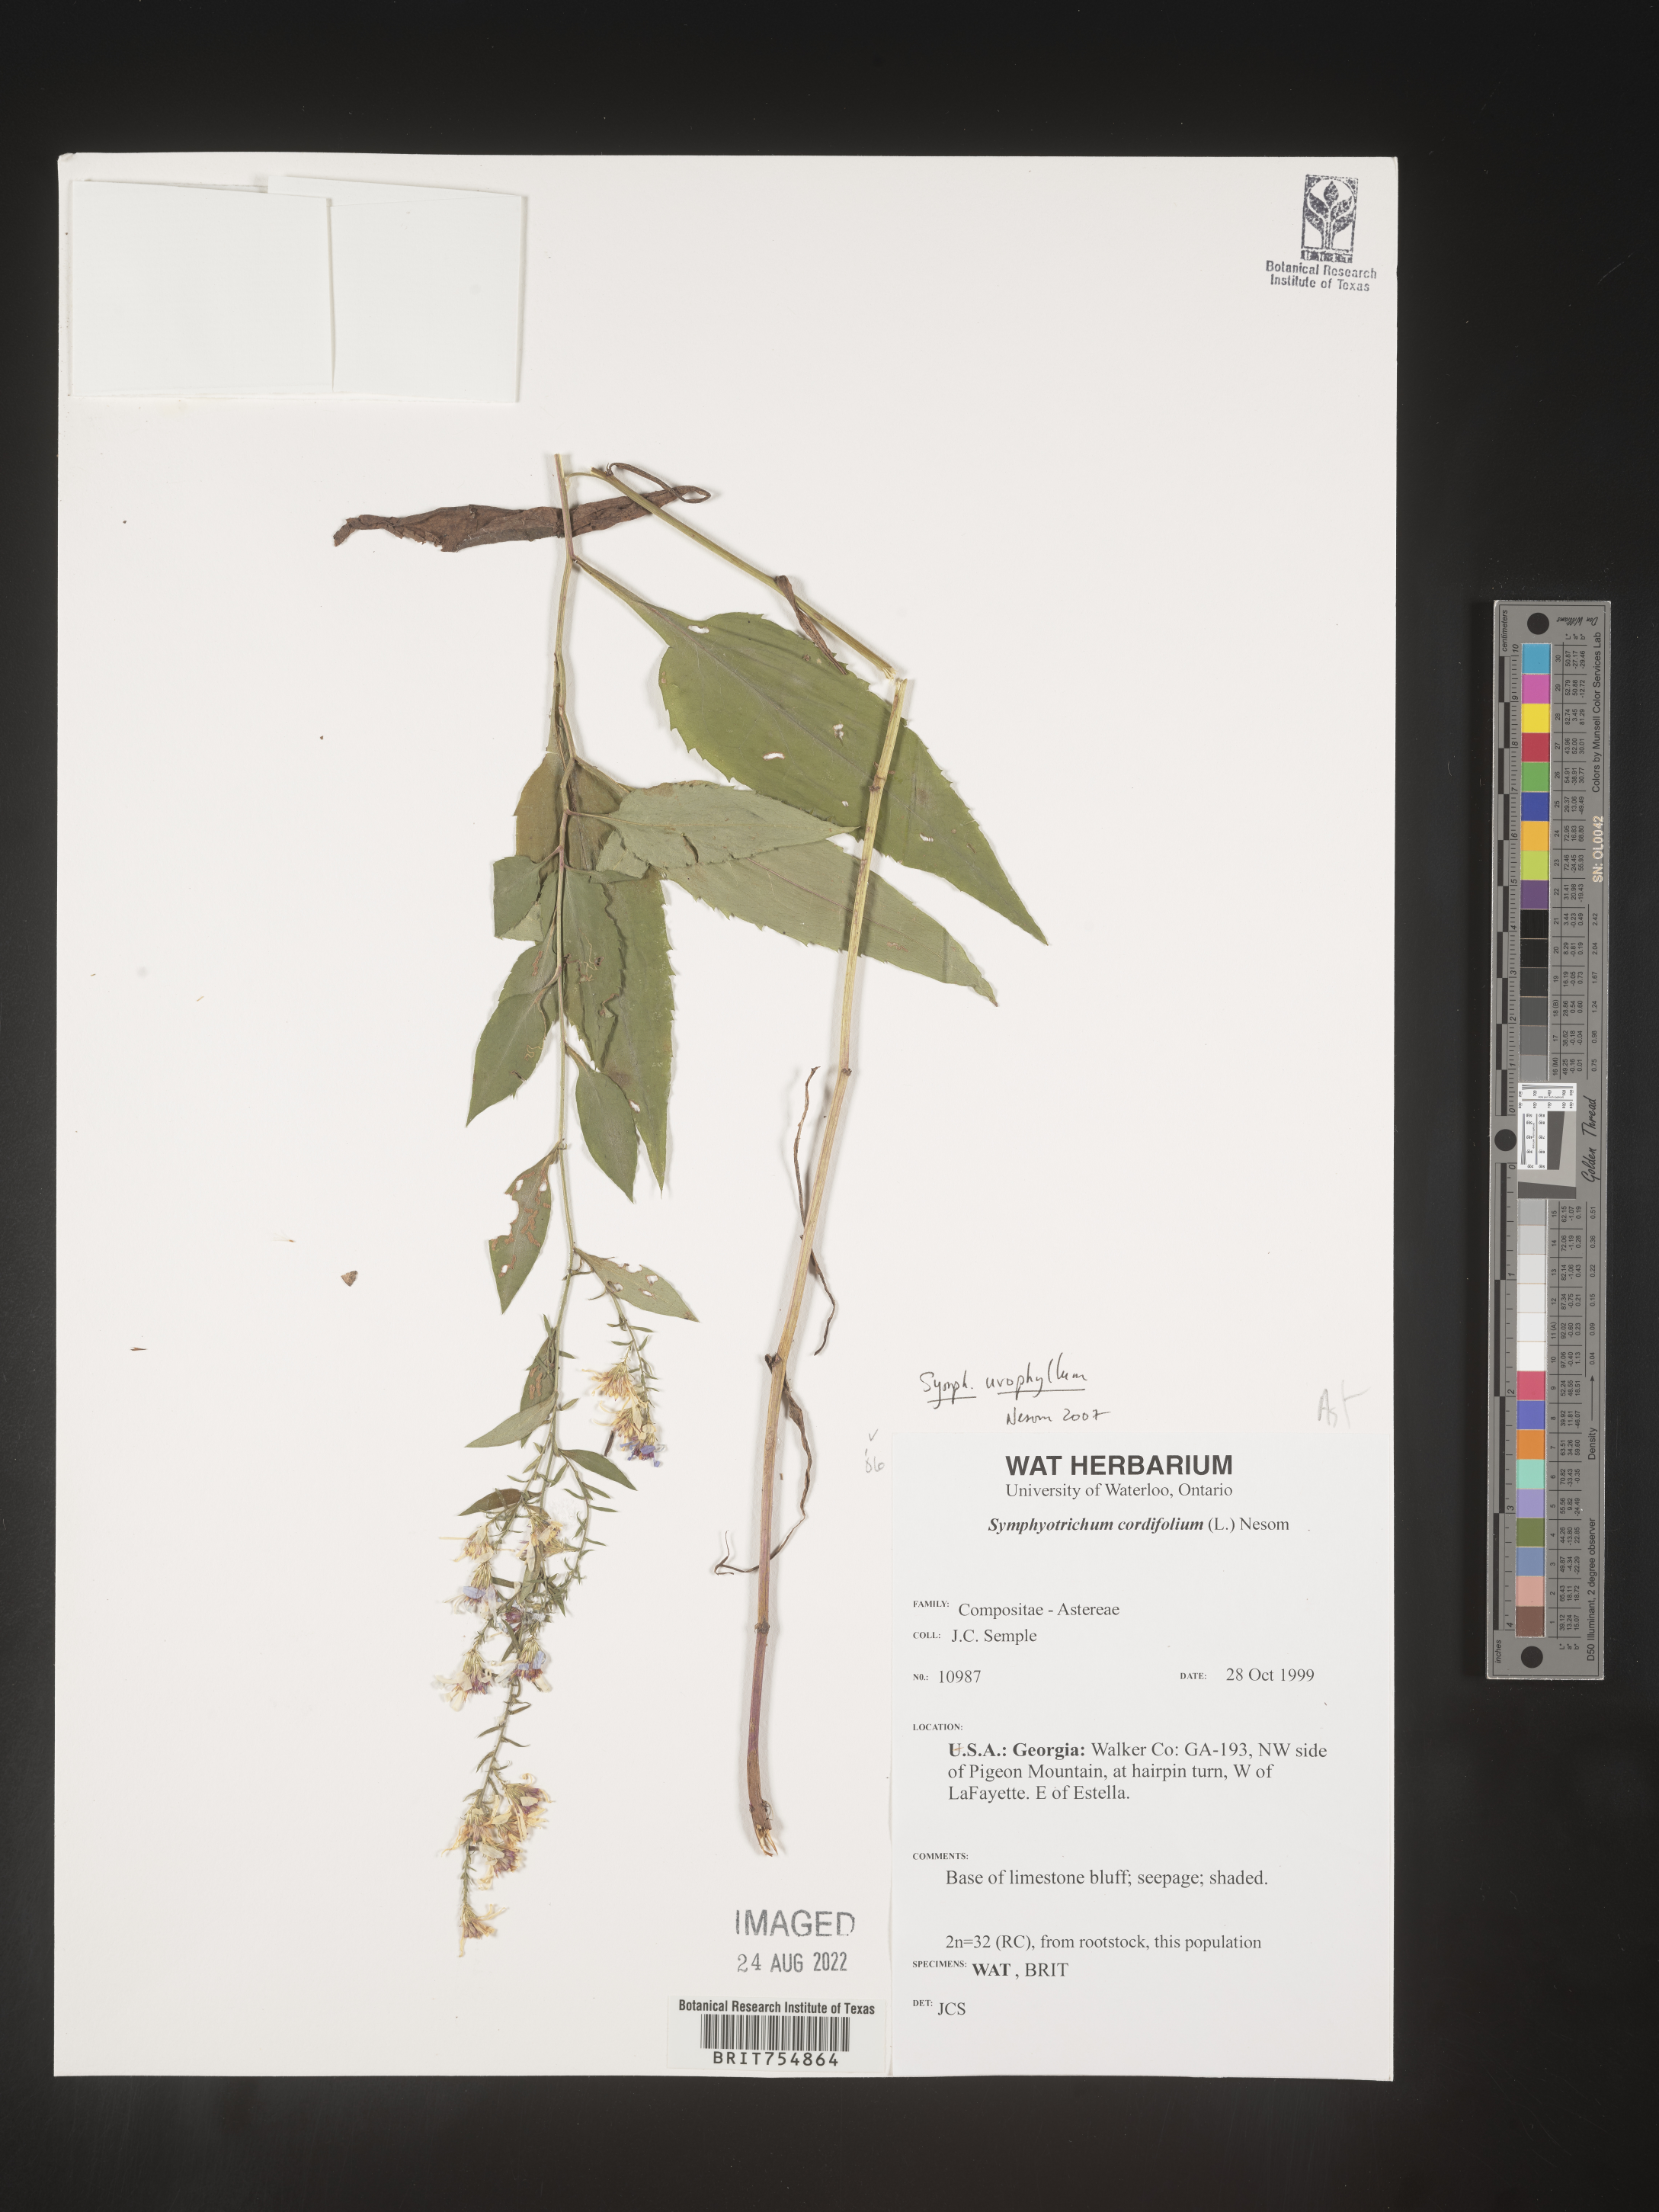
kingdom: Plantae
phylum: Tracheophyta
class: Magnoliopsida
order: Asterales
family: Asteraceae
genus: Symphyotrichum
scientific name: Symphyotrichum urophyllum
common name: Arrow-leaved aster
